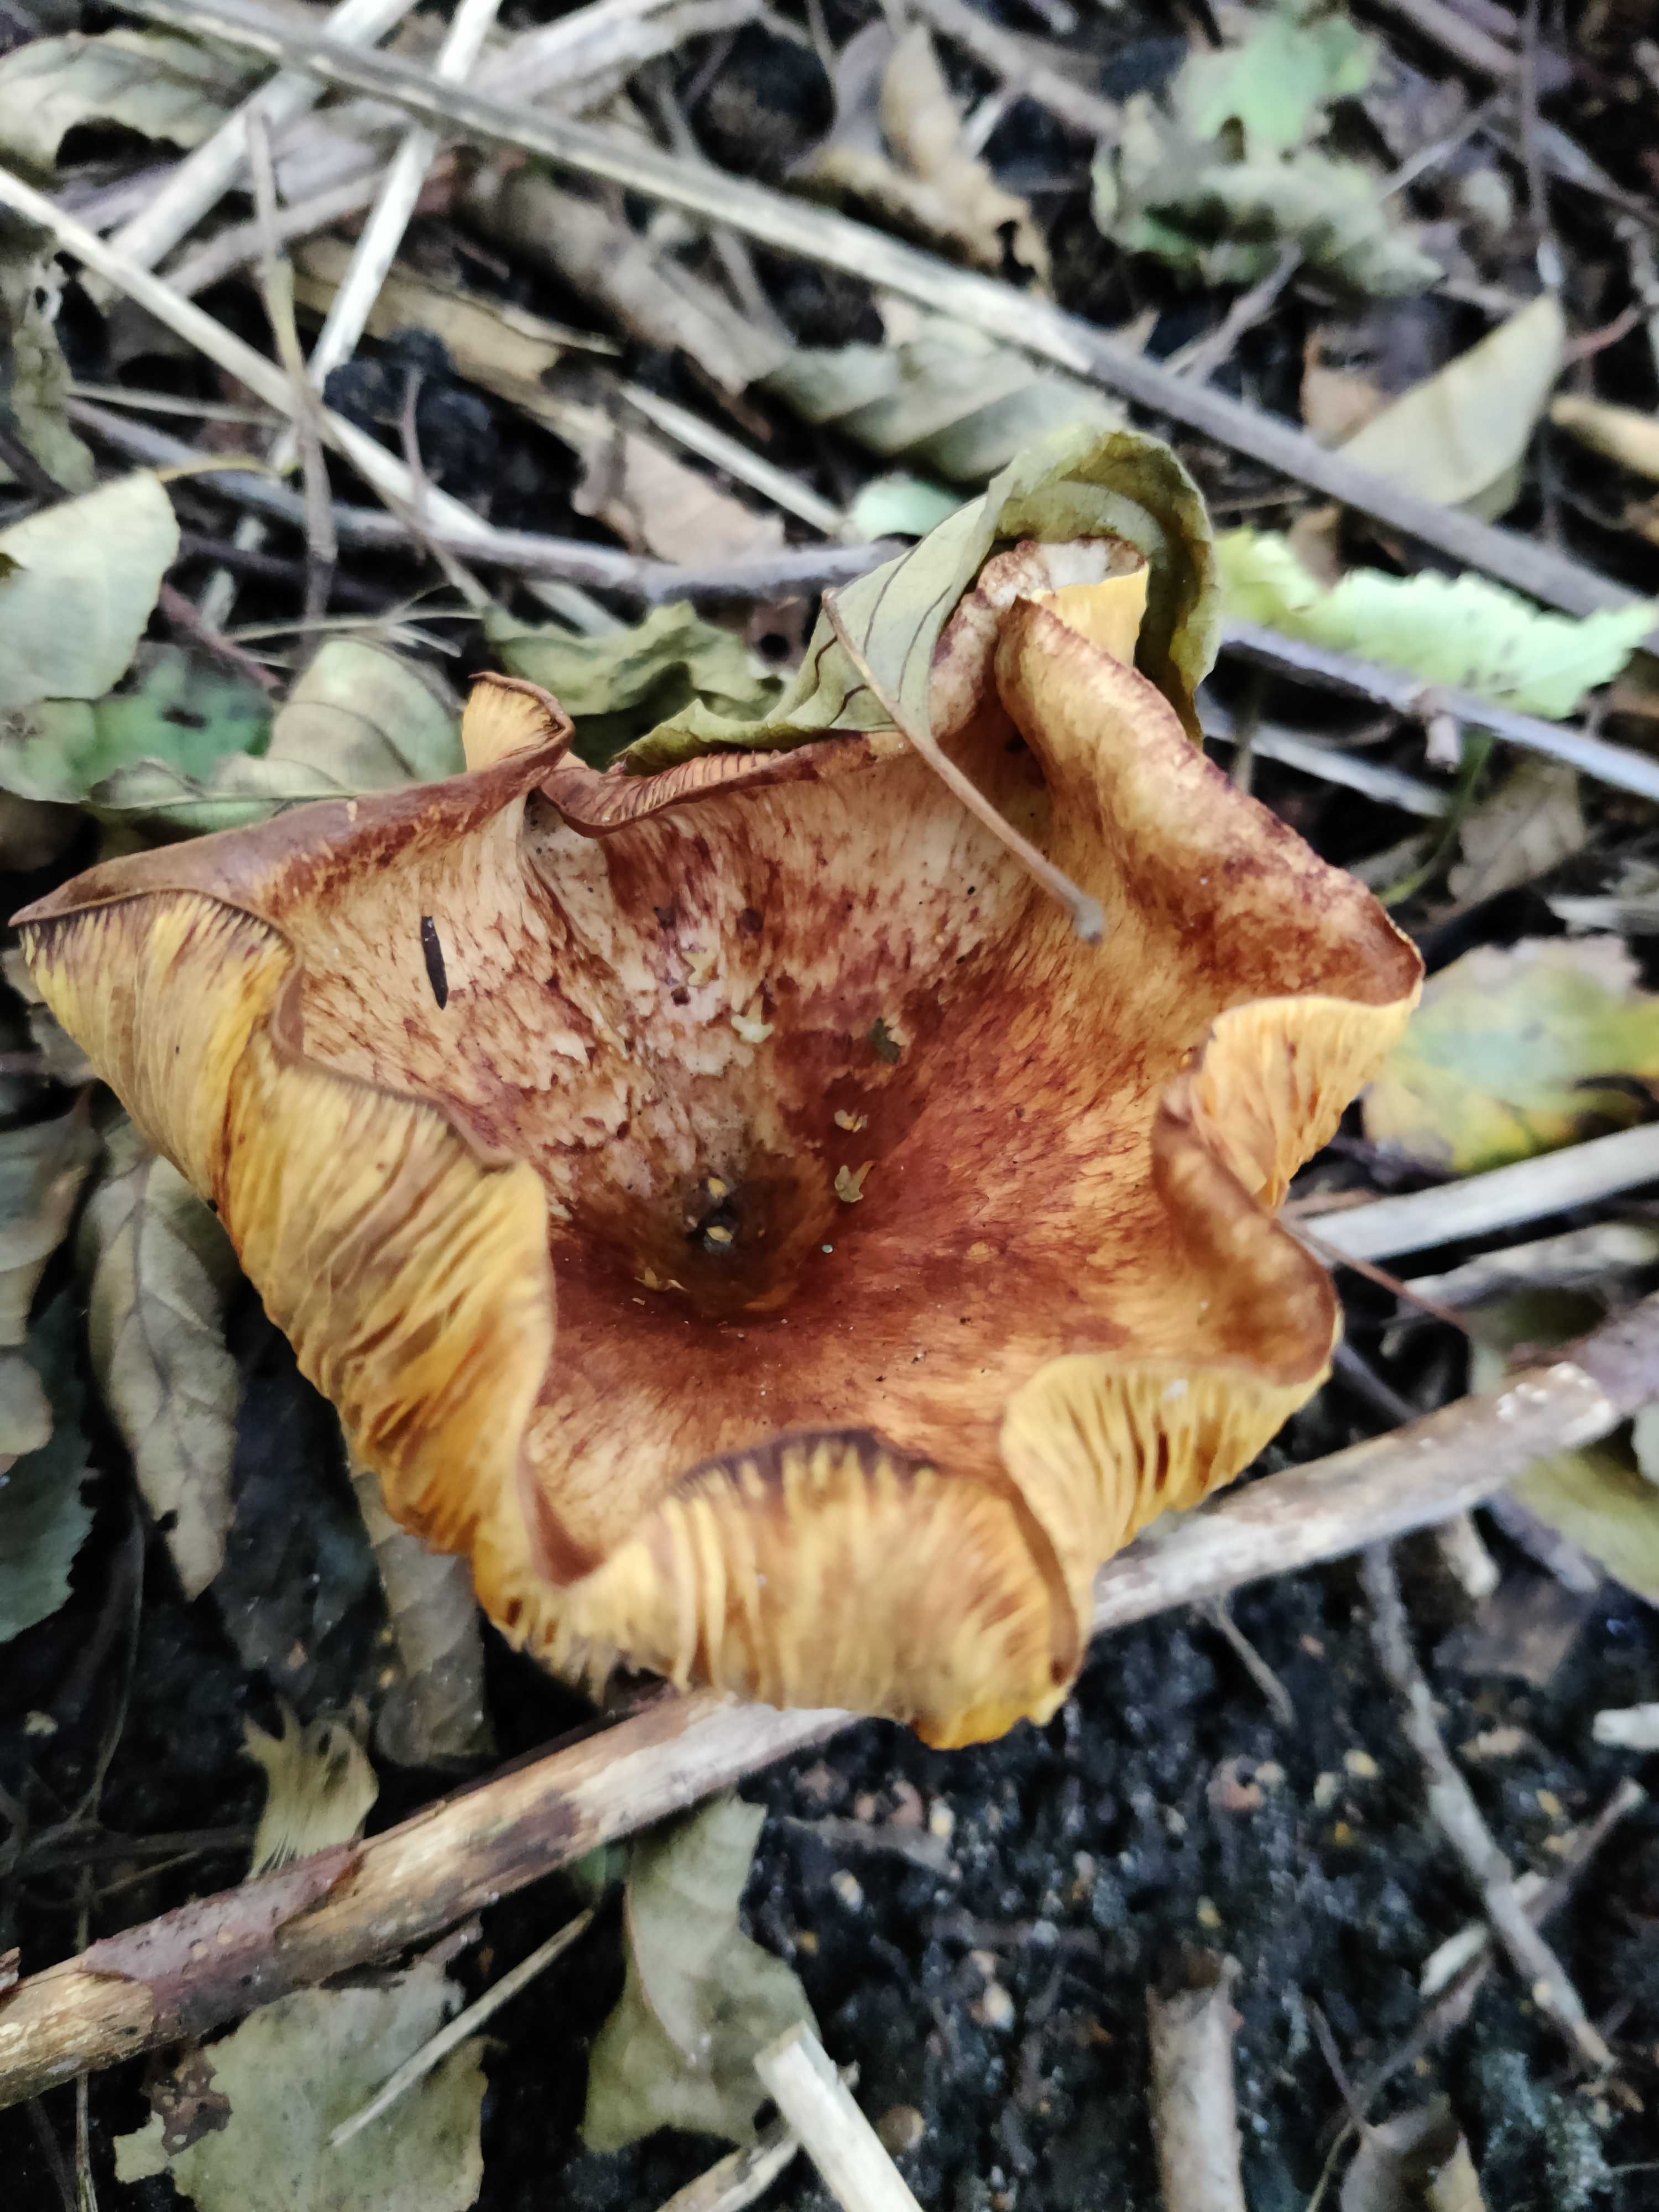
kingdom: Fungi
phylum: Basidiomycota
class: Agaricomycetes
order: Boletales
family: Paxillaceae
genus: Paxillus
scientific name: Paxillus rubicundulus
